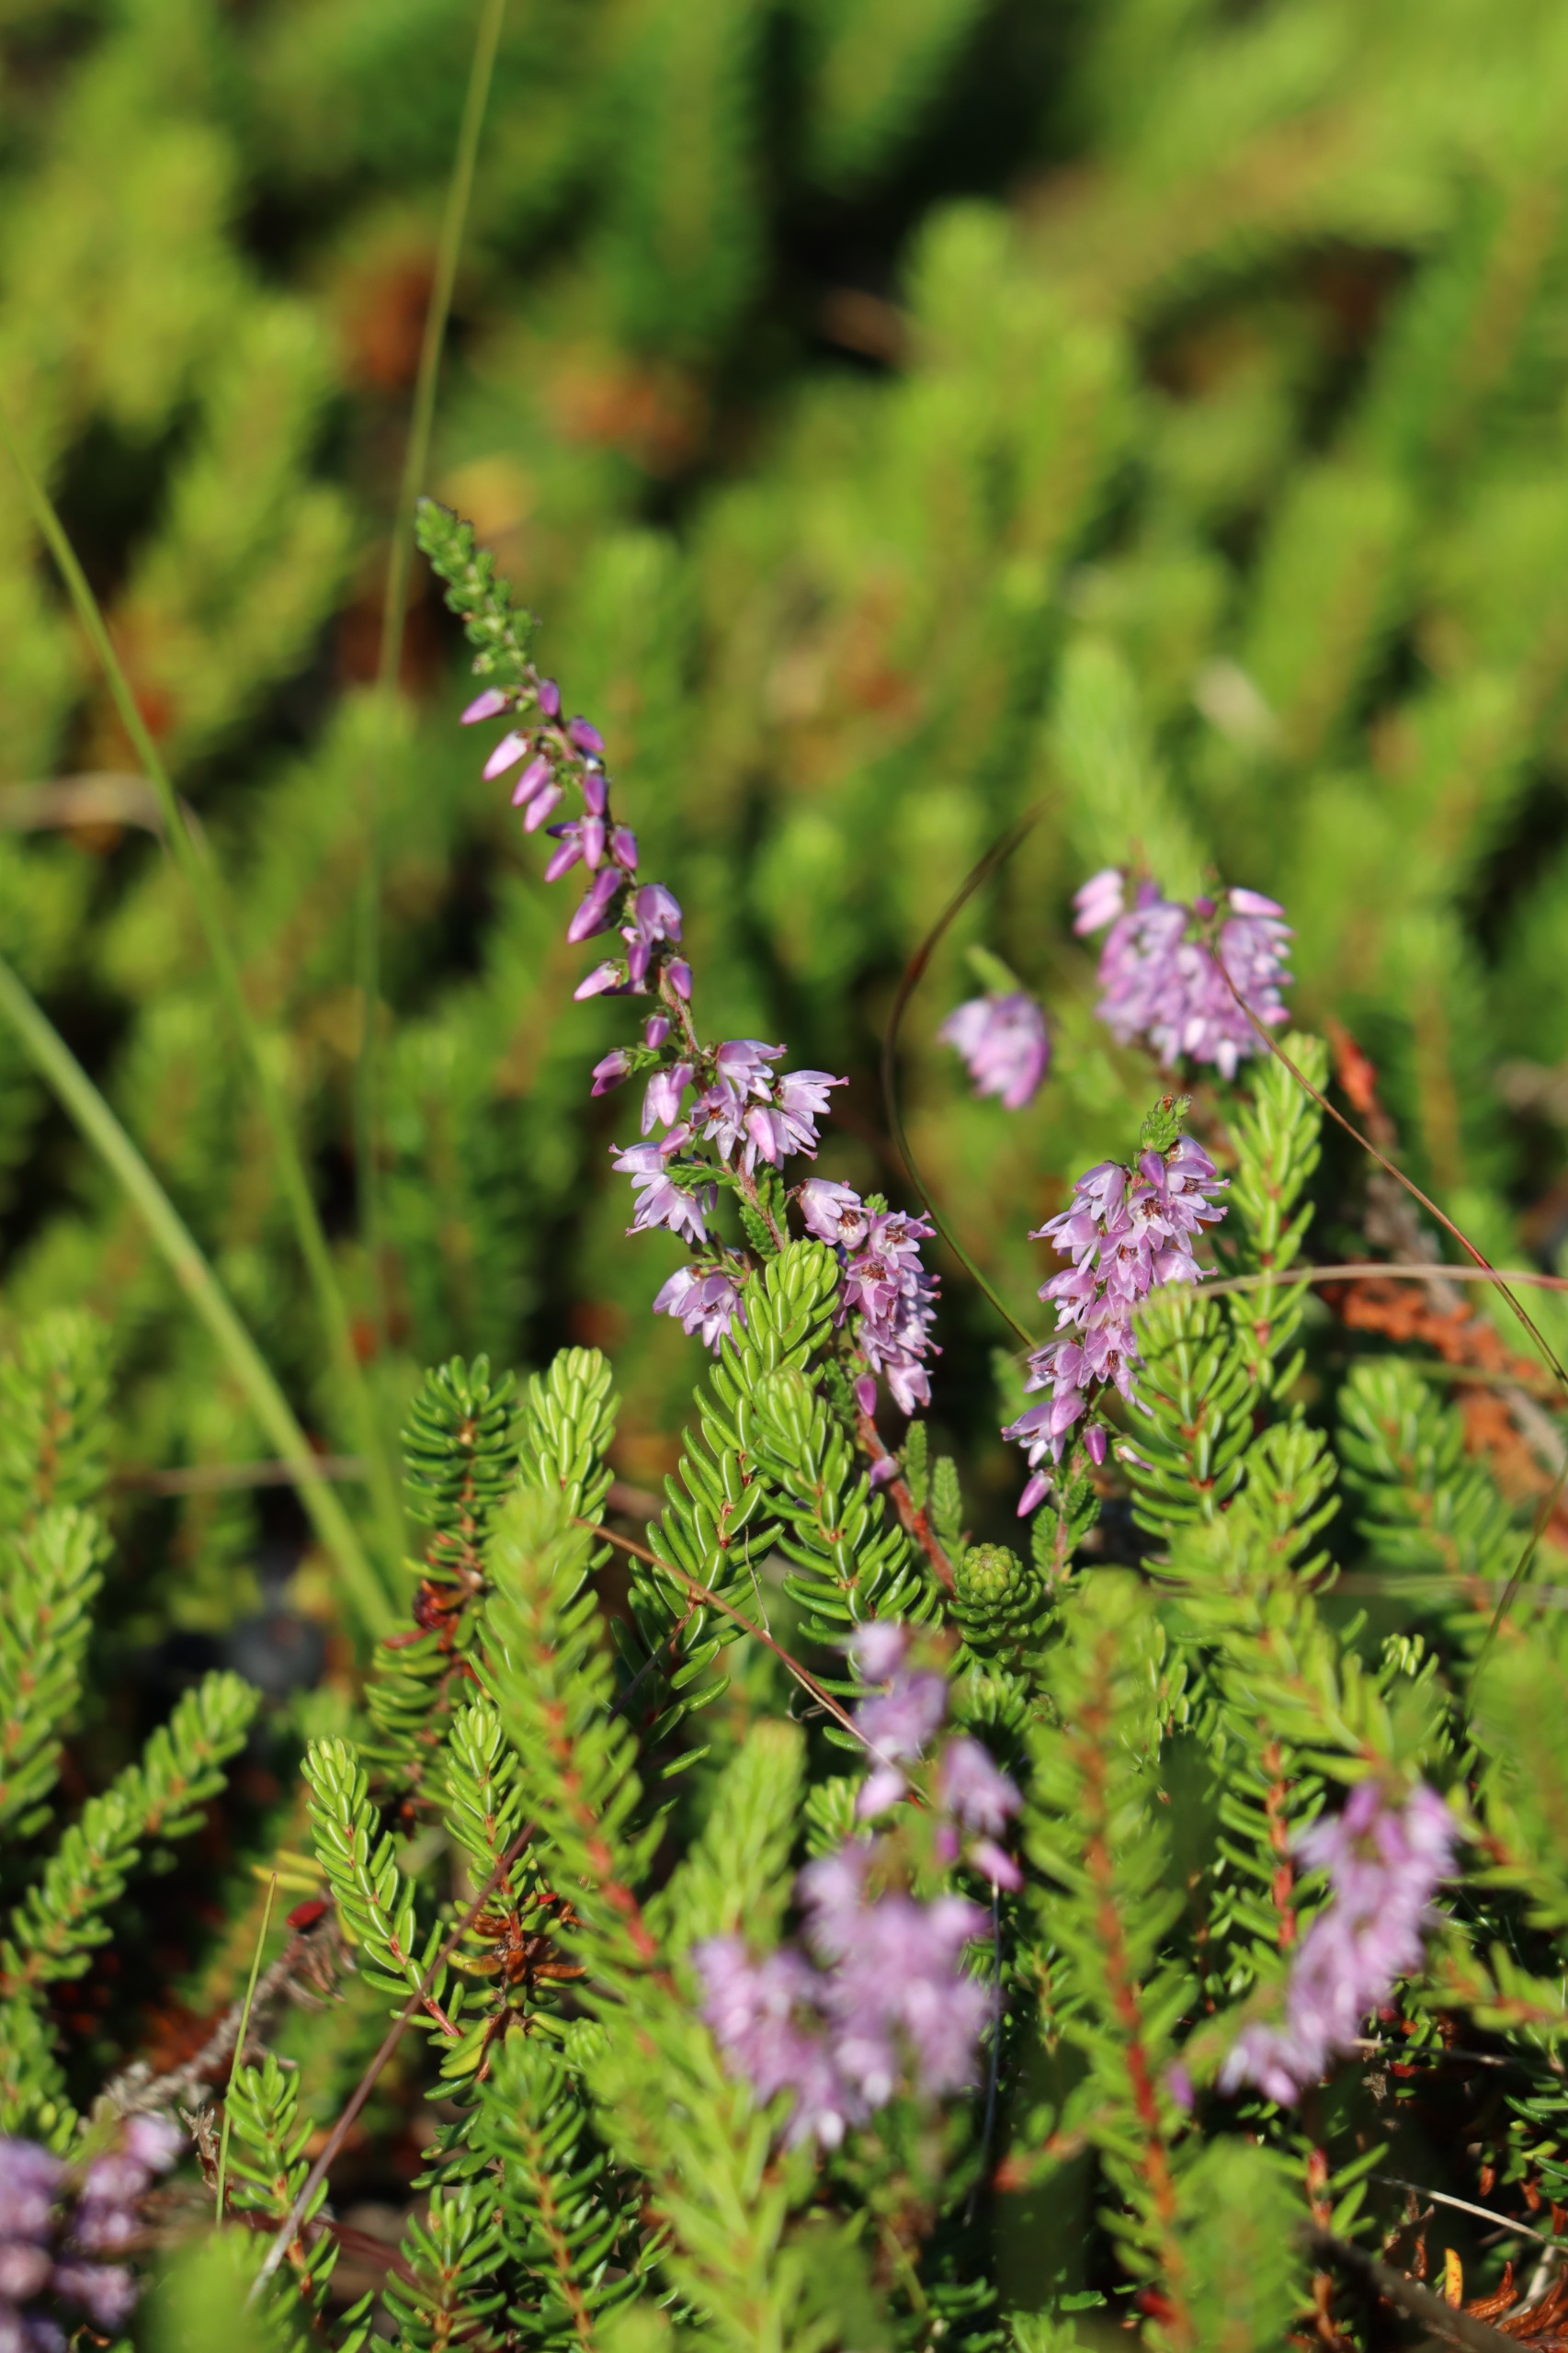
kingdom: Plantae
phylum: Tracheophyta
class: Magnoliopsida
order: Ericales
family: Ericaceae
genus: Empetrum
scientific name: Empetrum nigrum
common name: Revling
